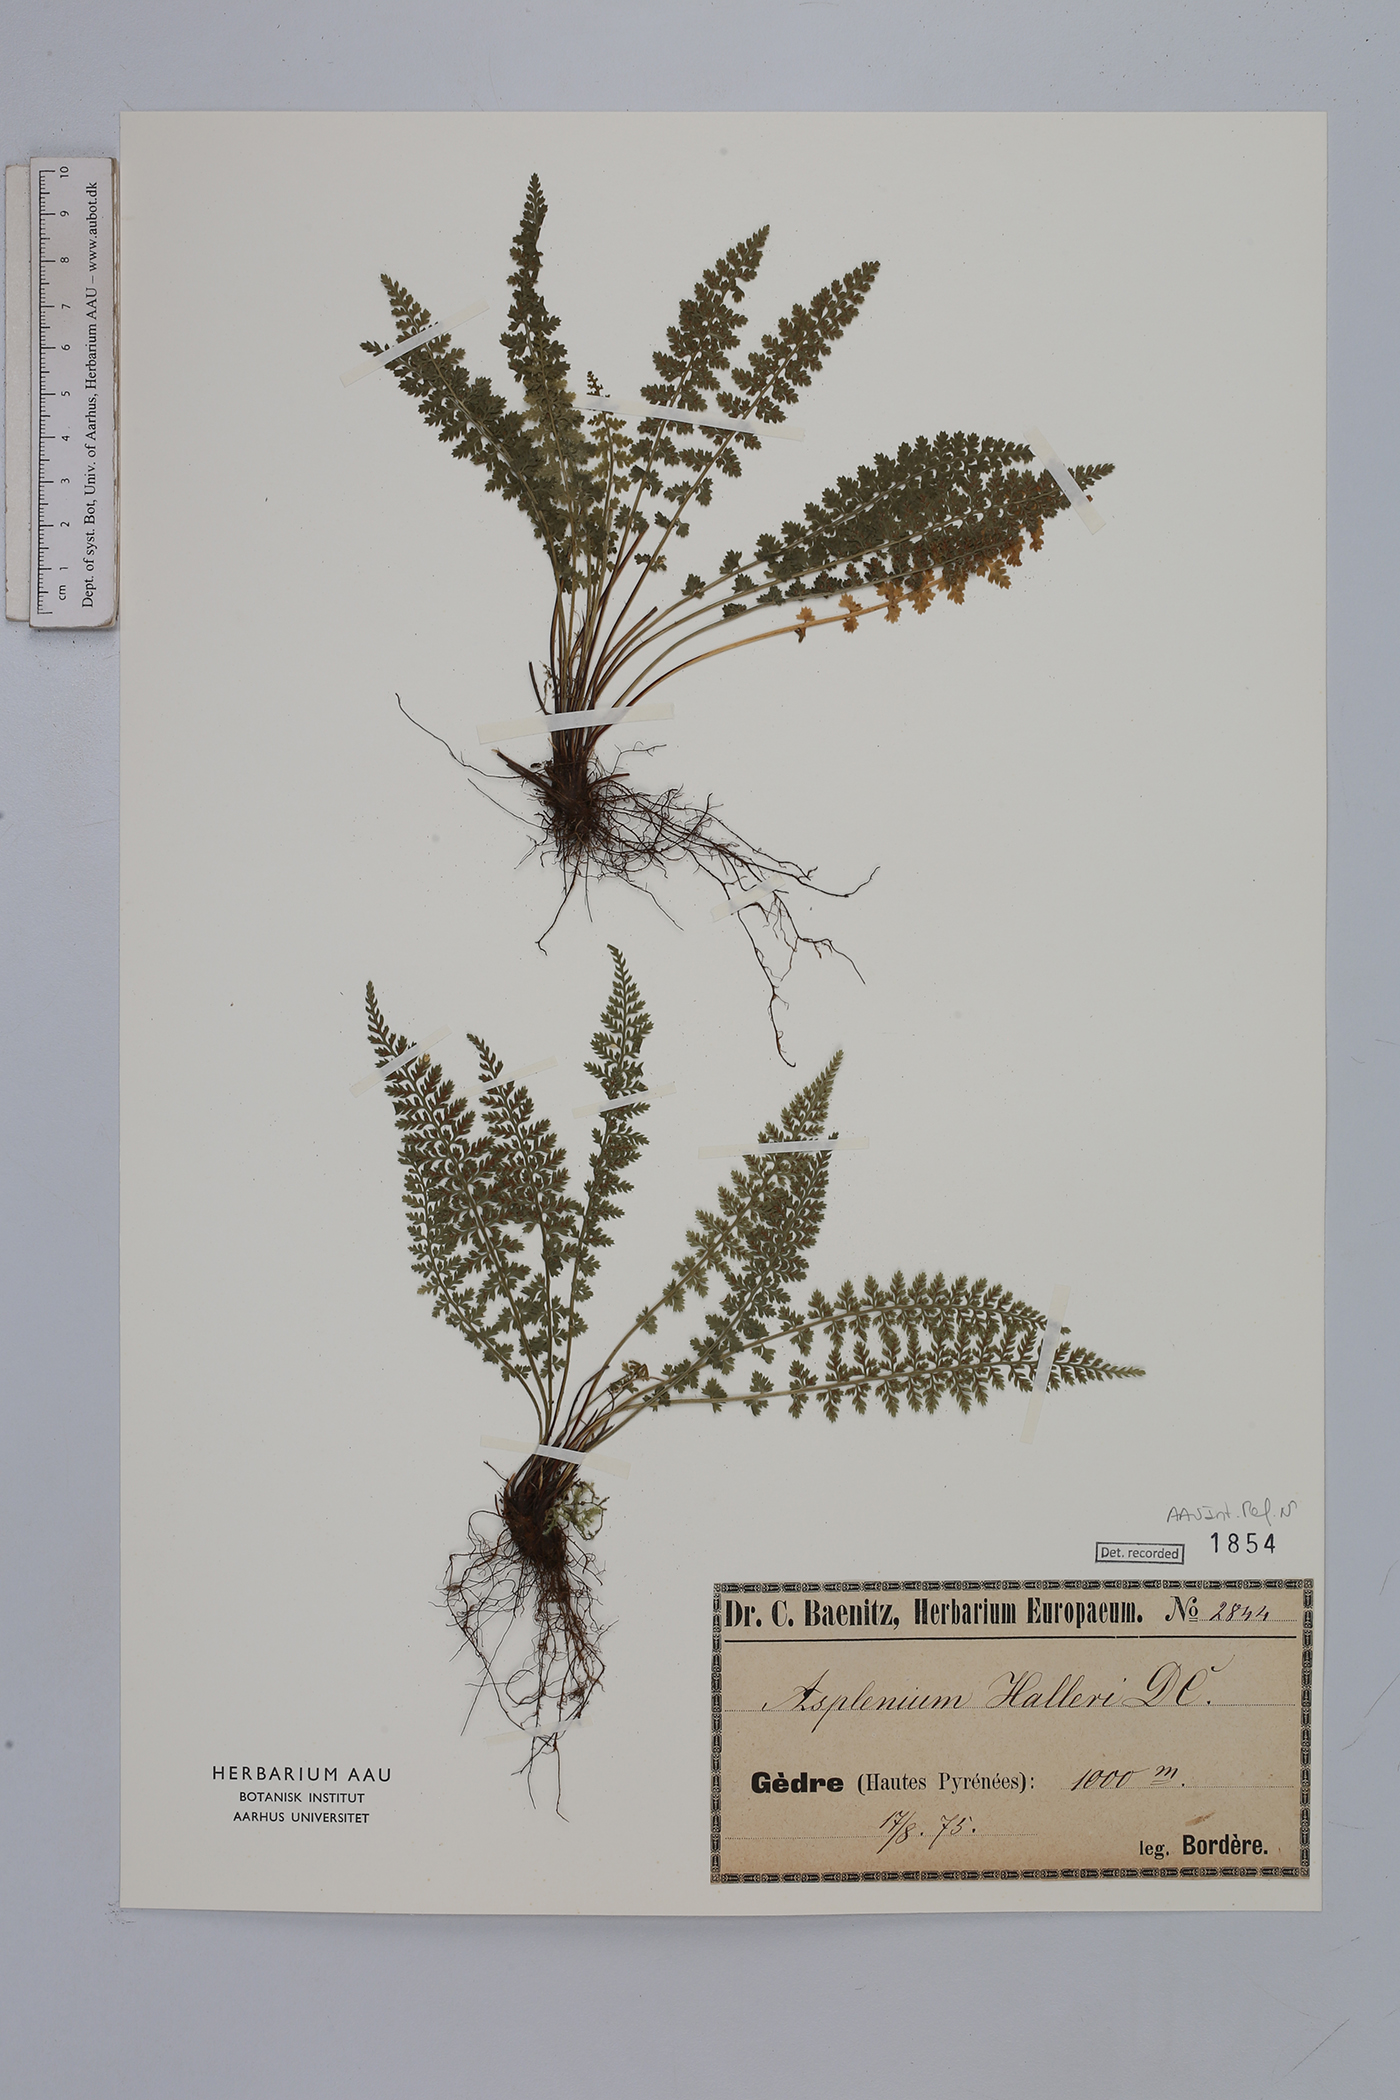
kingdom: Plantae
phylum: Tracheophyta
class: Polypodiopsida
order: Polypodiales
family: Aspleniaceae
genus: Asplenium
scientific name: Asplenium fontanum
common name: Fountain spleenwort
